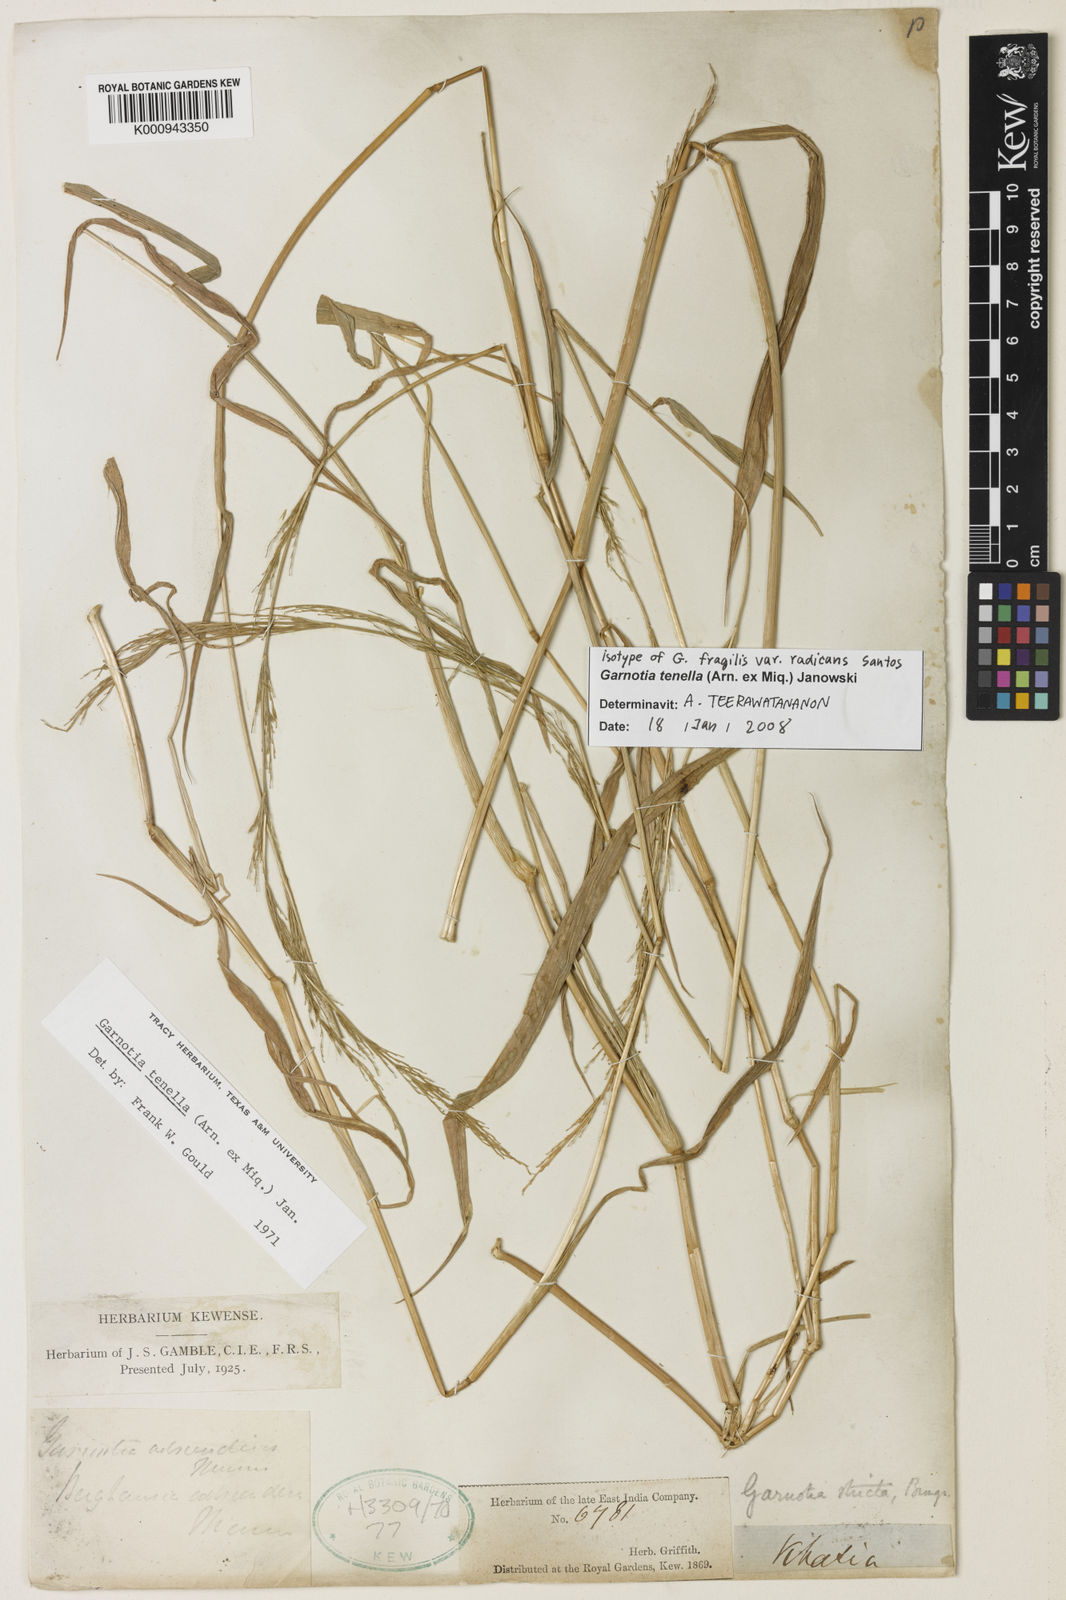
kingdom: Plantae
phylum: Tracheophyta
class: Liliopsida
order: Poales
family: Poaceae
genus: Garnotia
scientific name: Garnotia tenella
